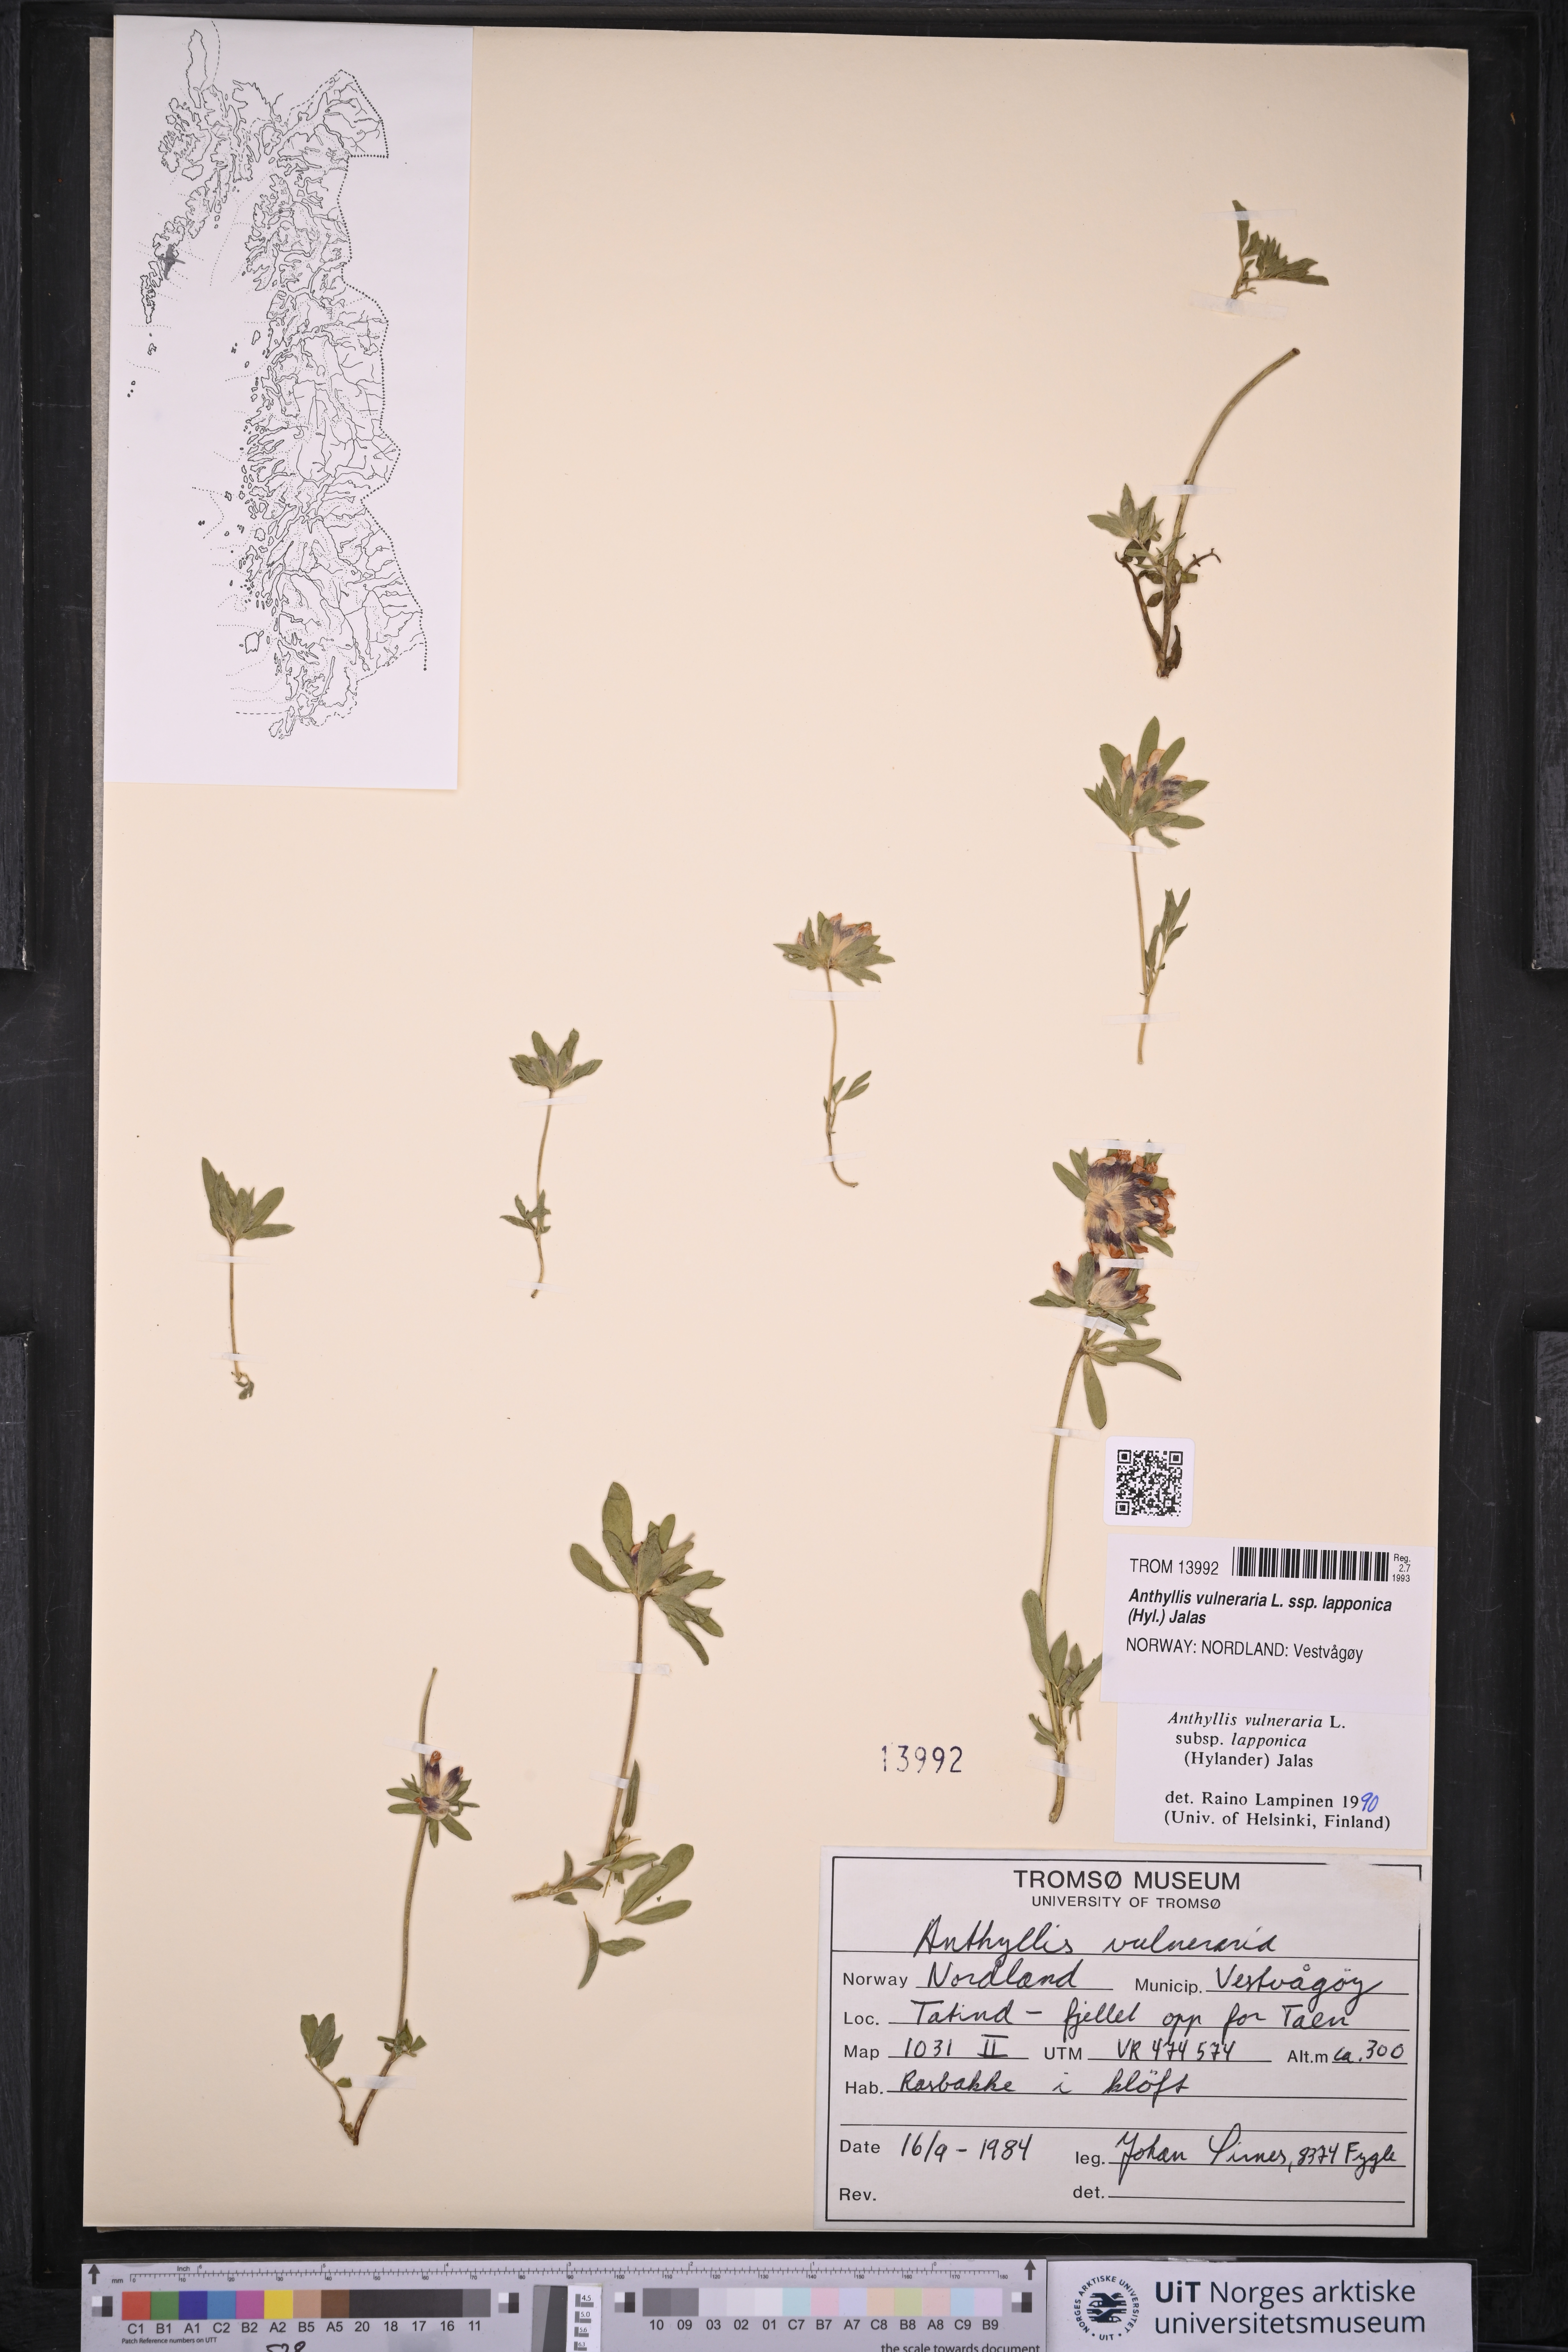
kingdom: Plantae
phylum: Tracheophyta
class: Magnoliopsida
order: Fabales
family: Fabaceae
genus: Anthyllis
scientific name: Anthyllis vulneraria
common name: Kidney vetch
